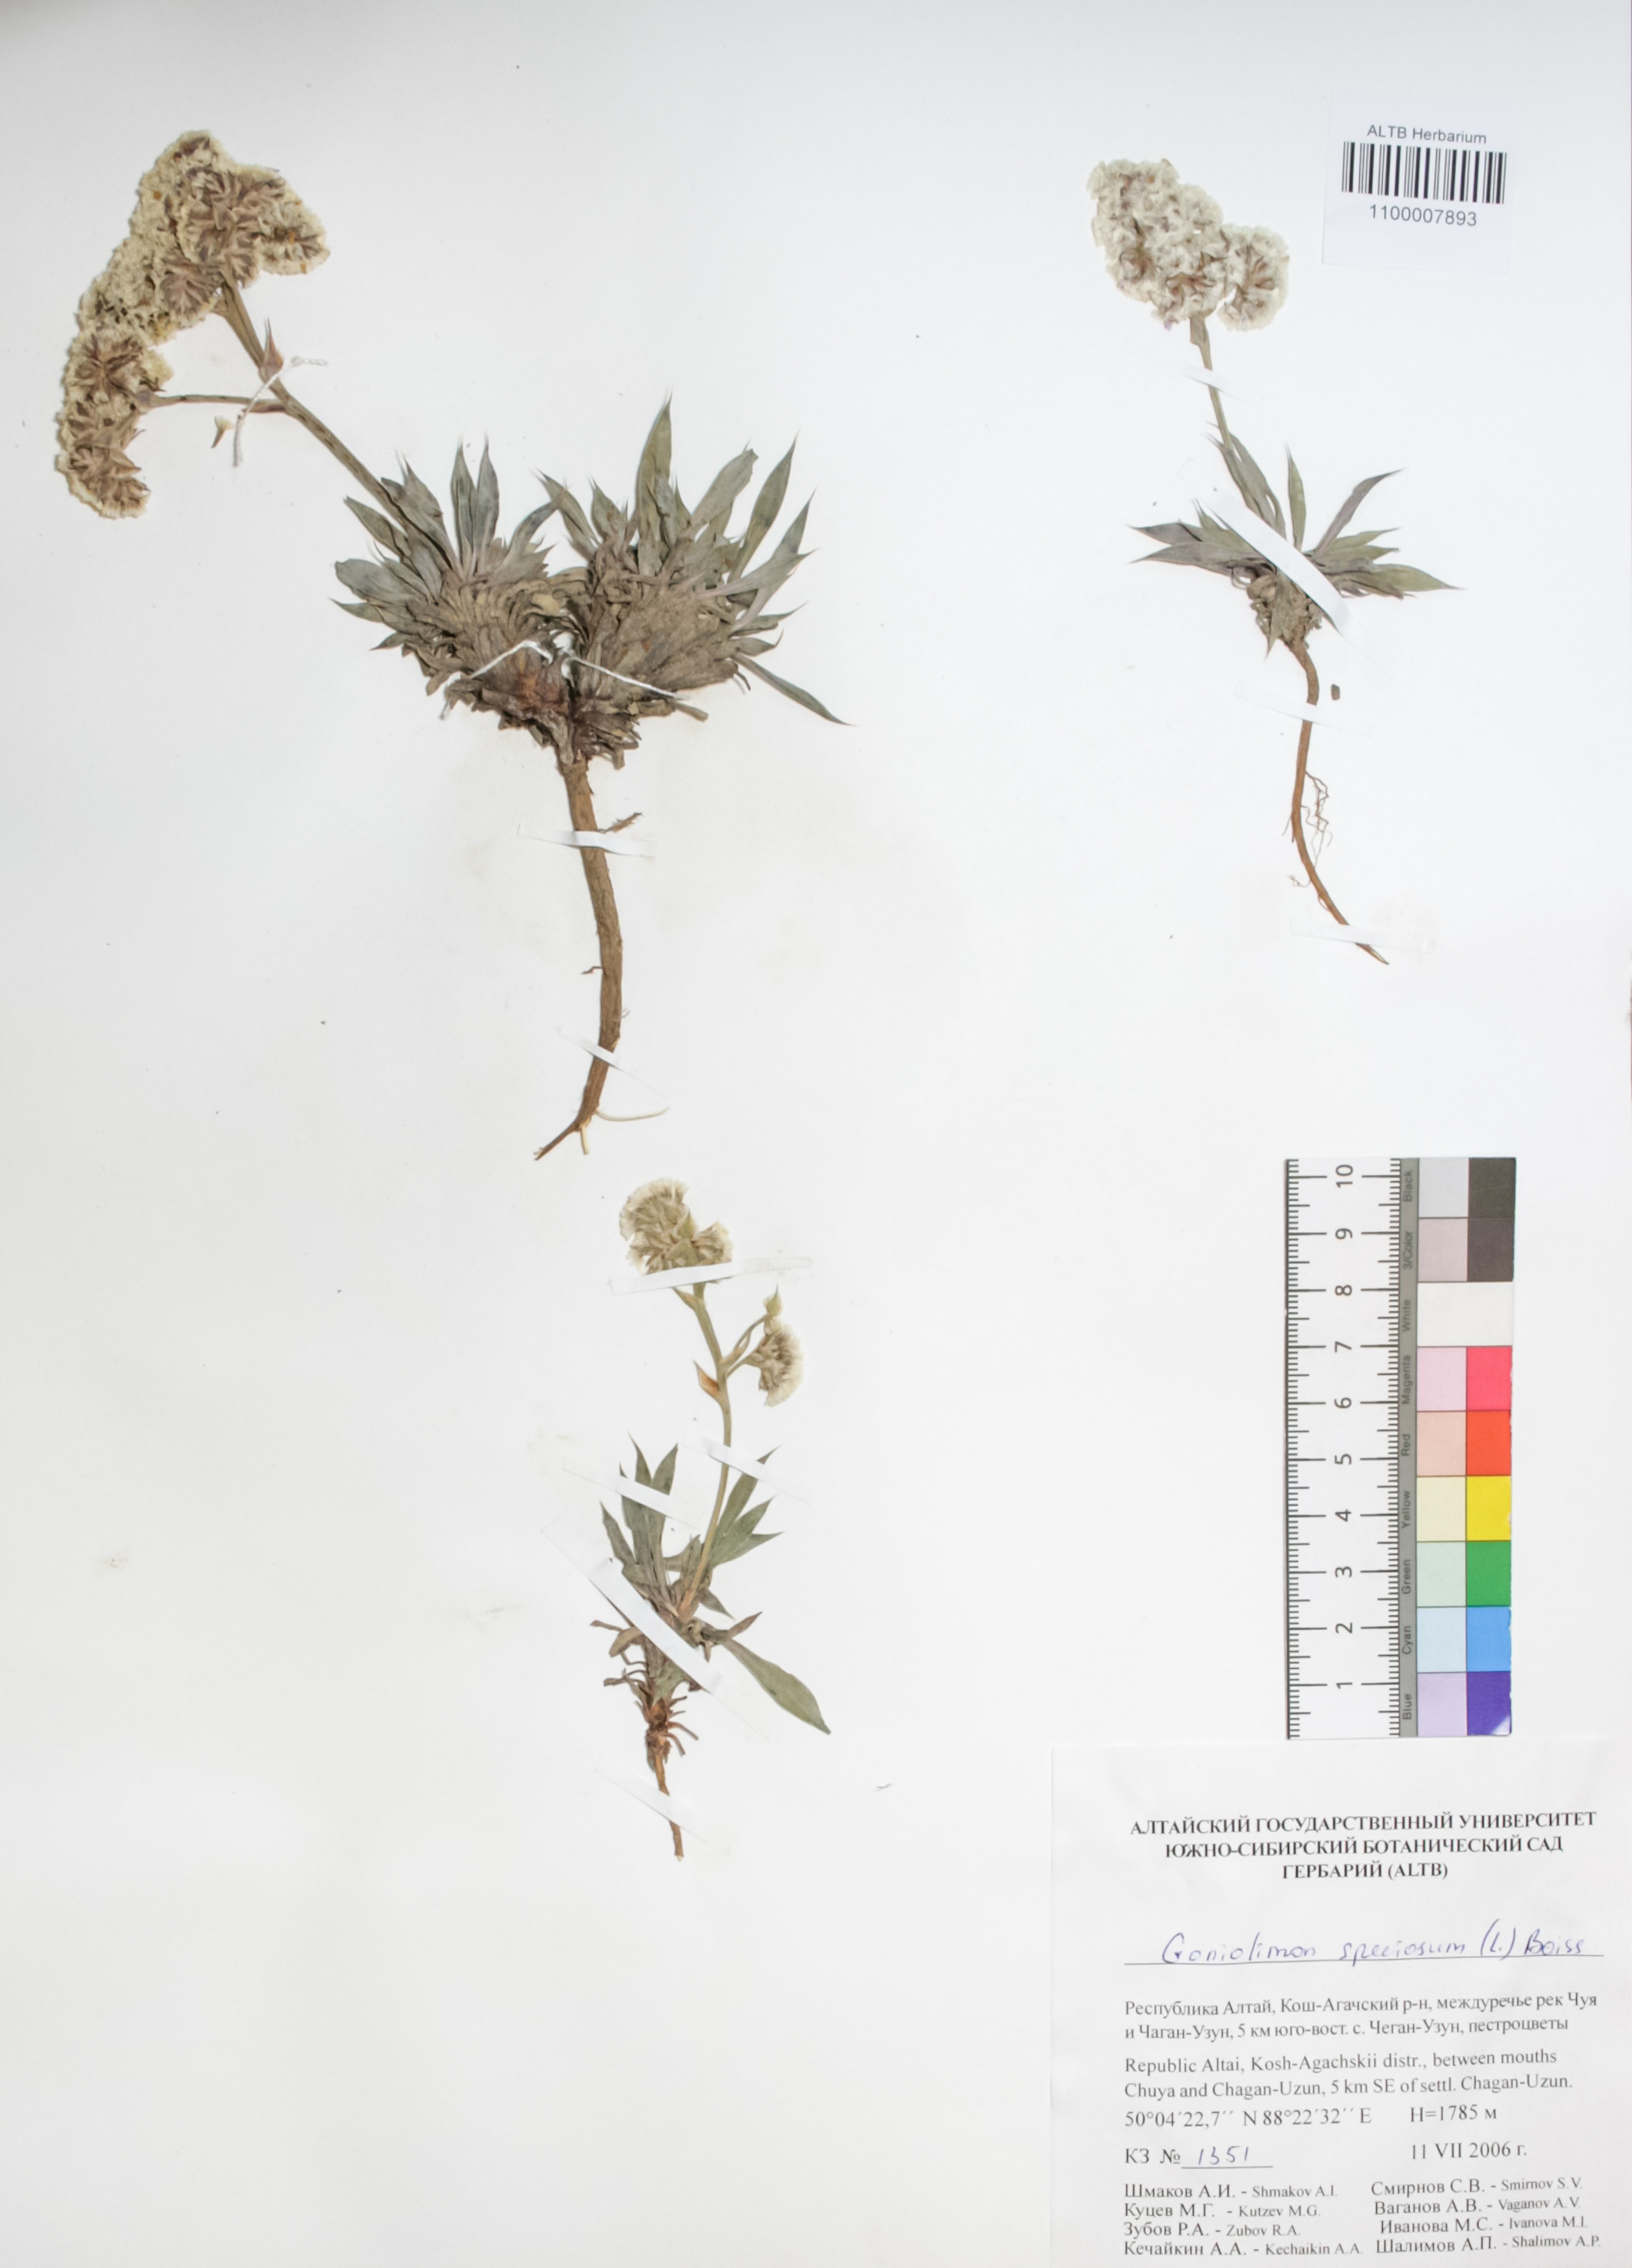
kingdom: Plantae
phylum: Tracheophyta
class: Magnoliopsida
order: Caryophyllales
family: Plumbaginaceae
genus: Goniolimon
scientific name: Goniolimon speciosum
